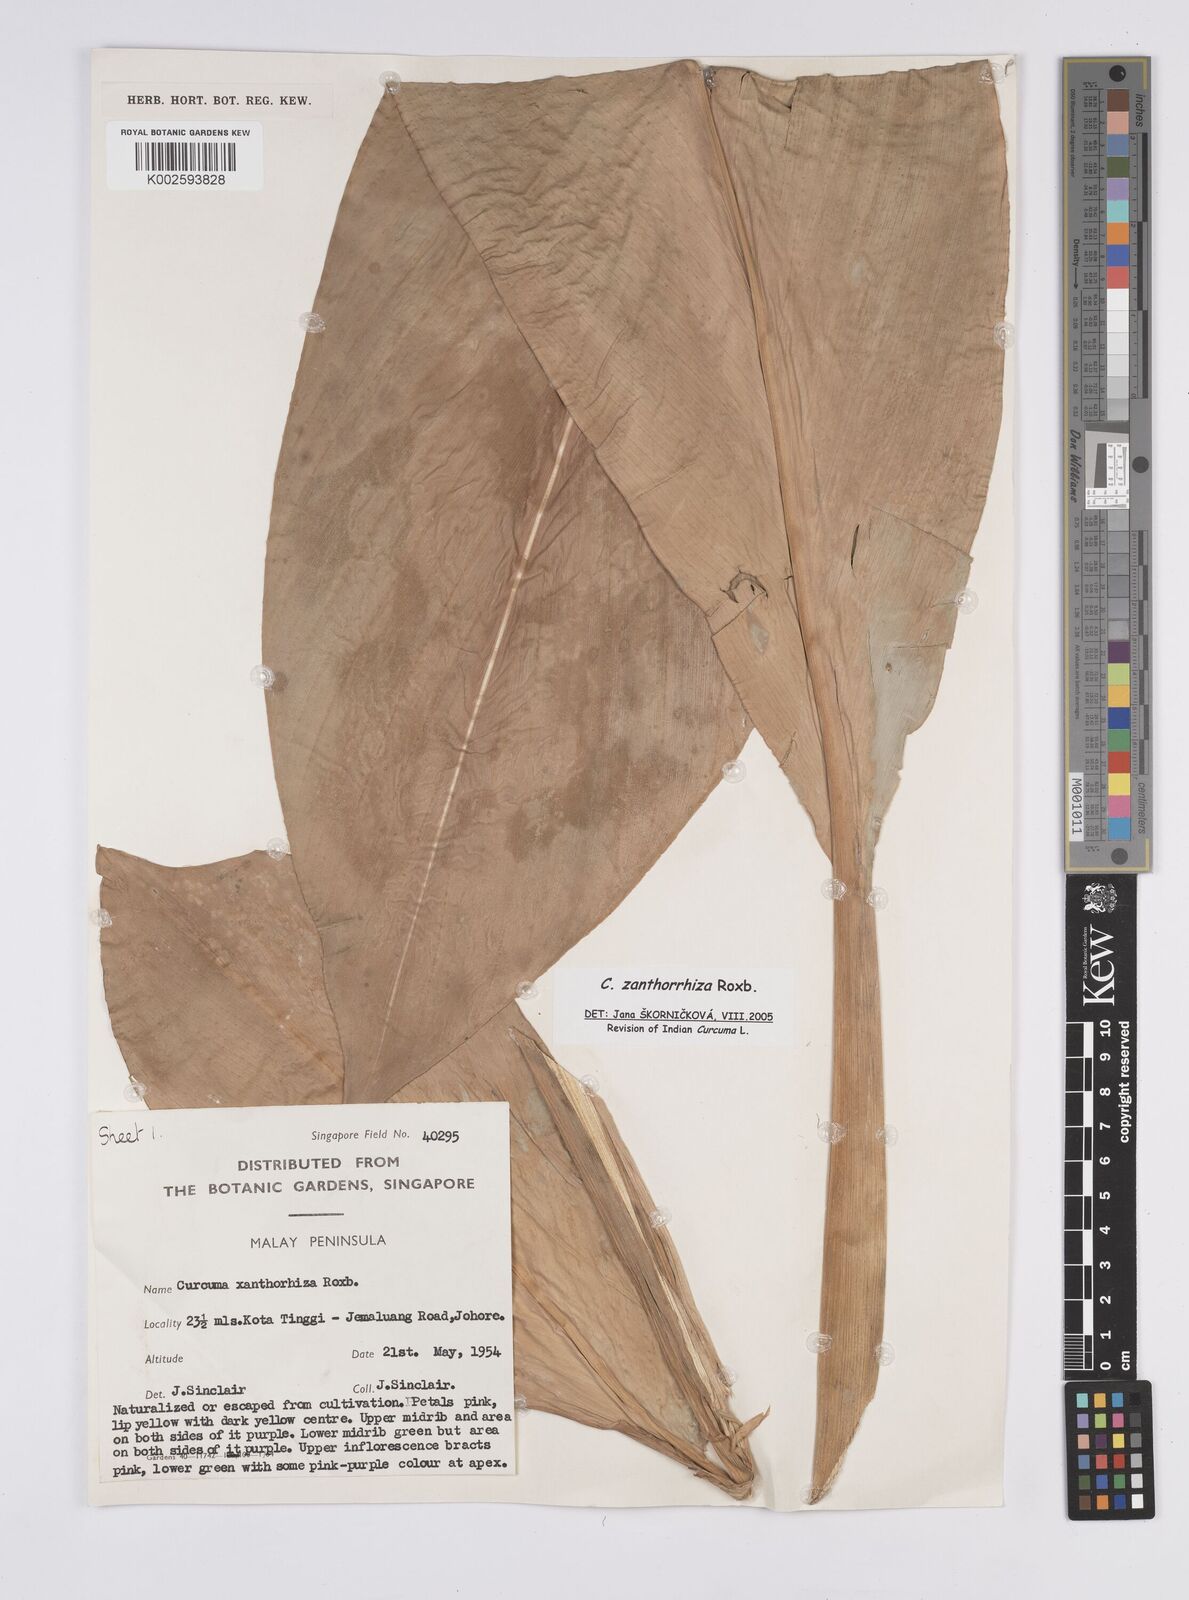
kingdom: Plantae
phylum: Tracheophyta
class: Liliopsida
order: Zingiberales
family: Zingiberaceae
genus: Curcuma
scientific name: Curcuma zanthorrhiza
